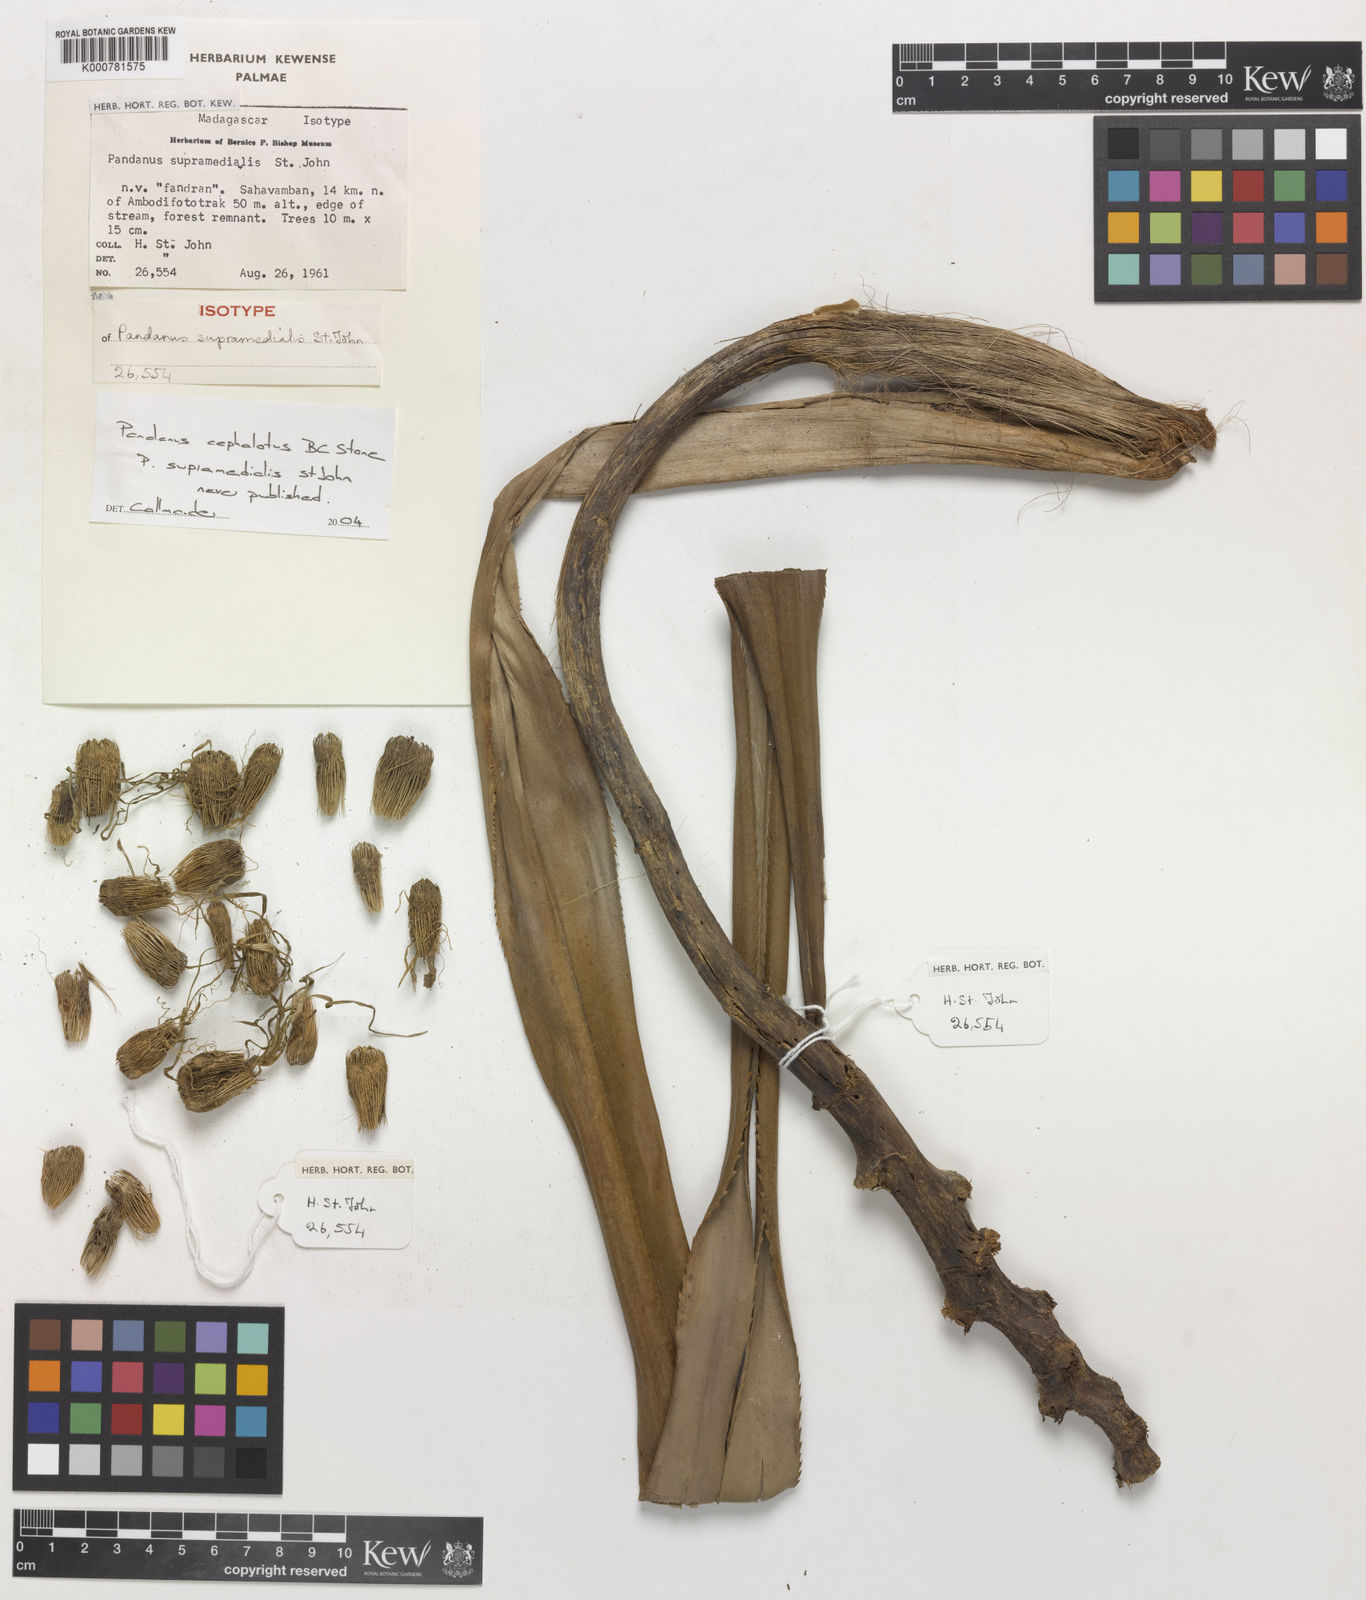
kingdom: Plantae
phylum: Tracheophyta
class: Liliopsida
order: Pandanales
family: Pandanaceae
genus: Pandanus
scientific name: Pandanus cephalotus
